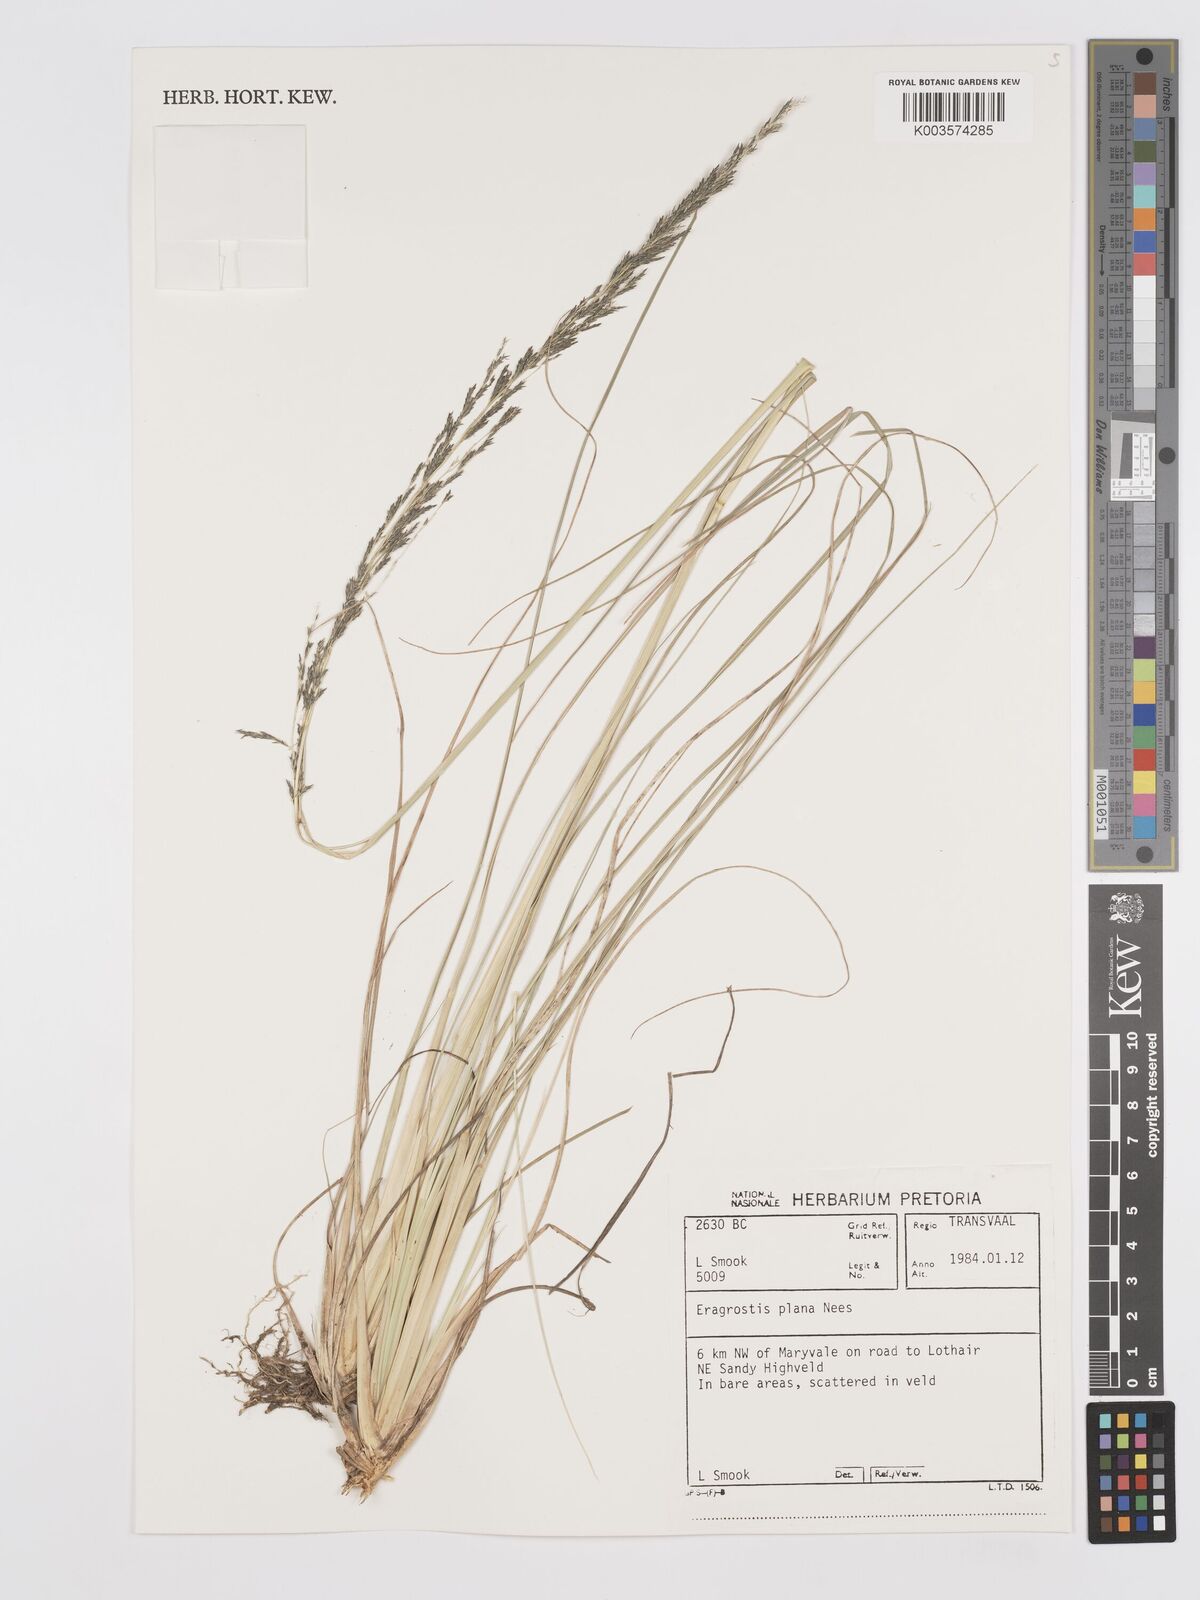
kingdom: Plantae
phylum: Tracheophyta
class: Liliopsida
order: Poales
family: Poaceae
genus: Eragrostis
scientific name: Eragrostis plana
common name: South african lovegrass
